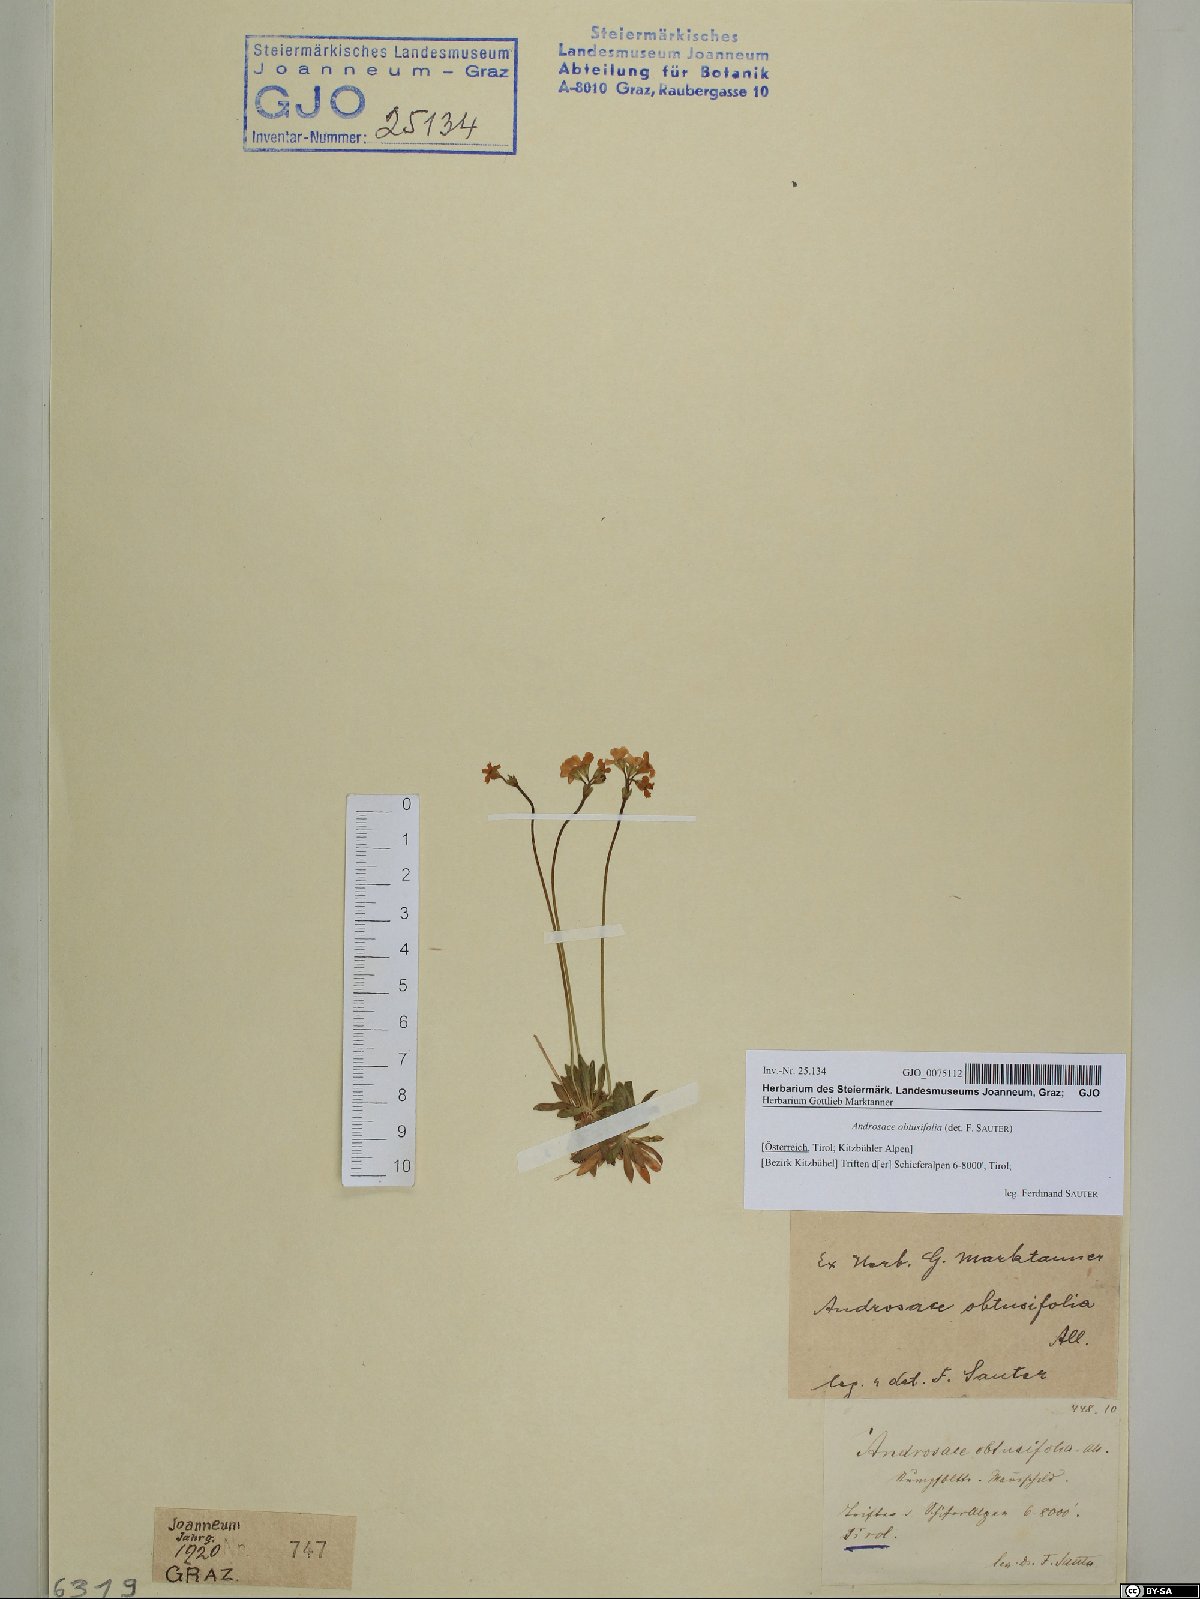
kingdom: Plantae
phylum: Tracheophyta
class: Magnoliopsida
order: Ericales
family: Primulaceae
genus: Androsace
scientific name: Androsace obtusifolia
